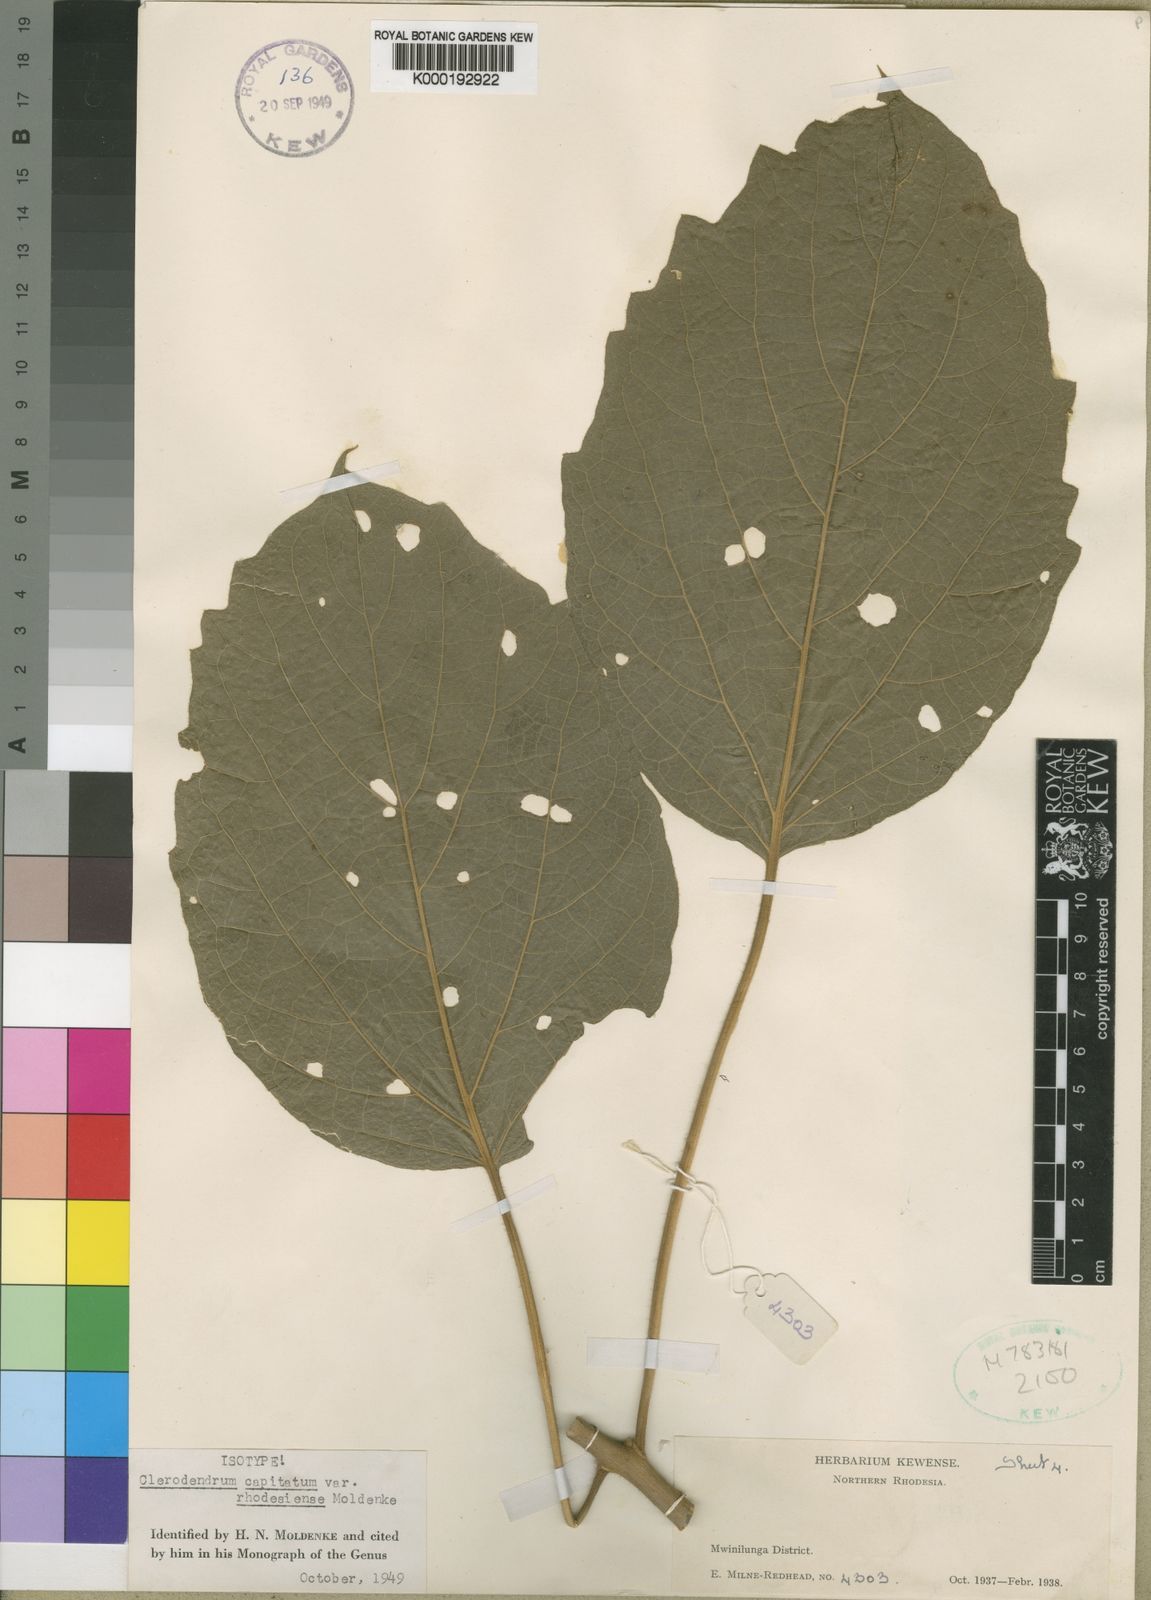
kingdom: Plantae
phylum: Tracheophyta
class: Magnoliopsida
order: Lamiales
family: Lamiaceae
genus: Clerodendrum
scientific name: Clerodendrum
